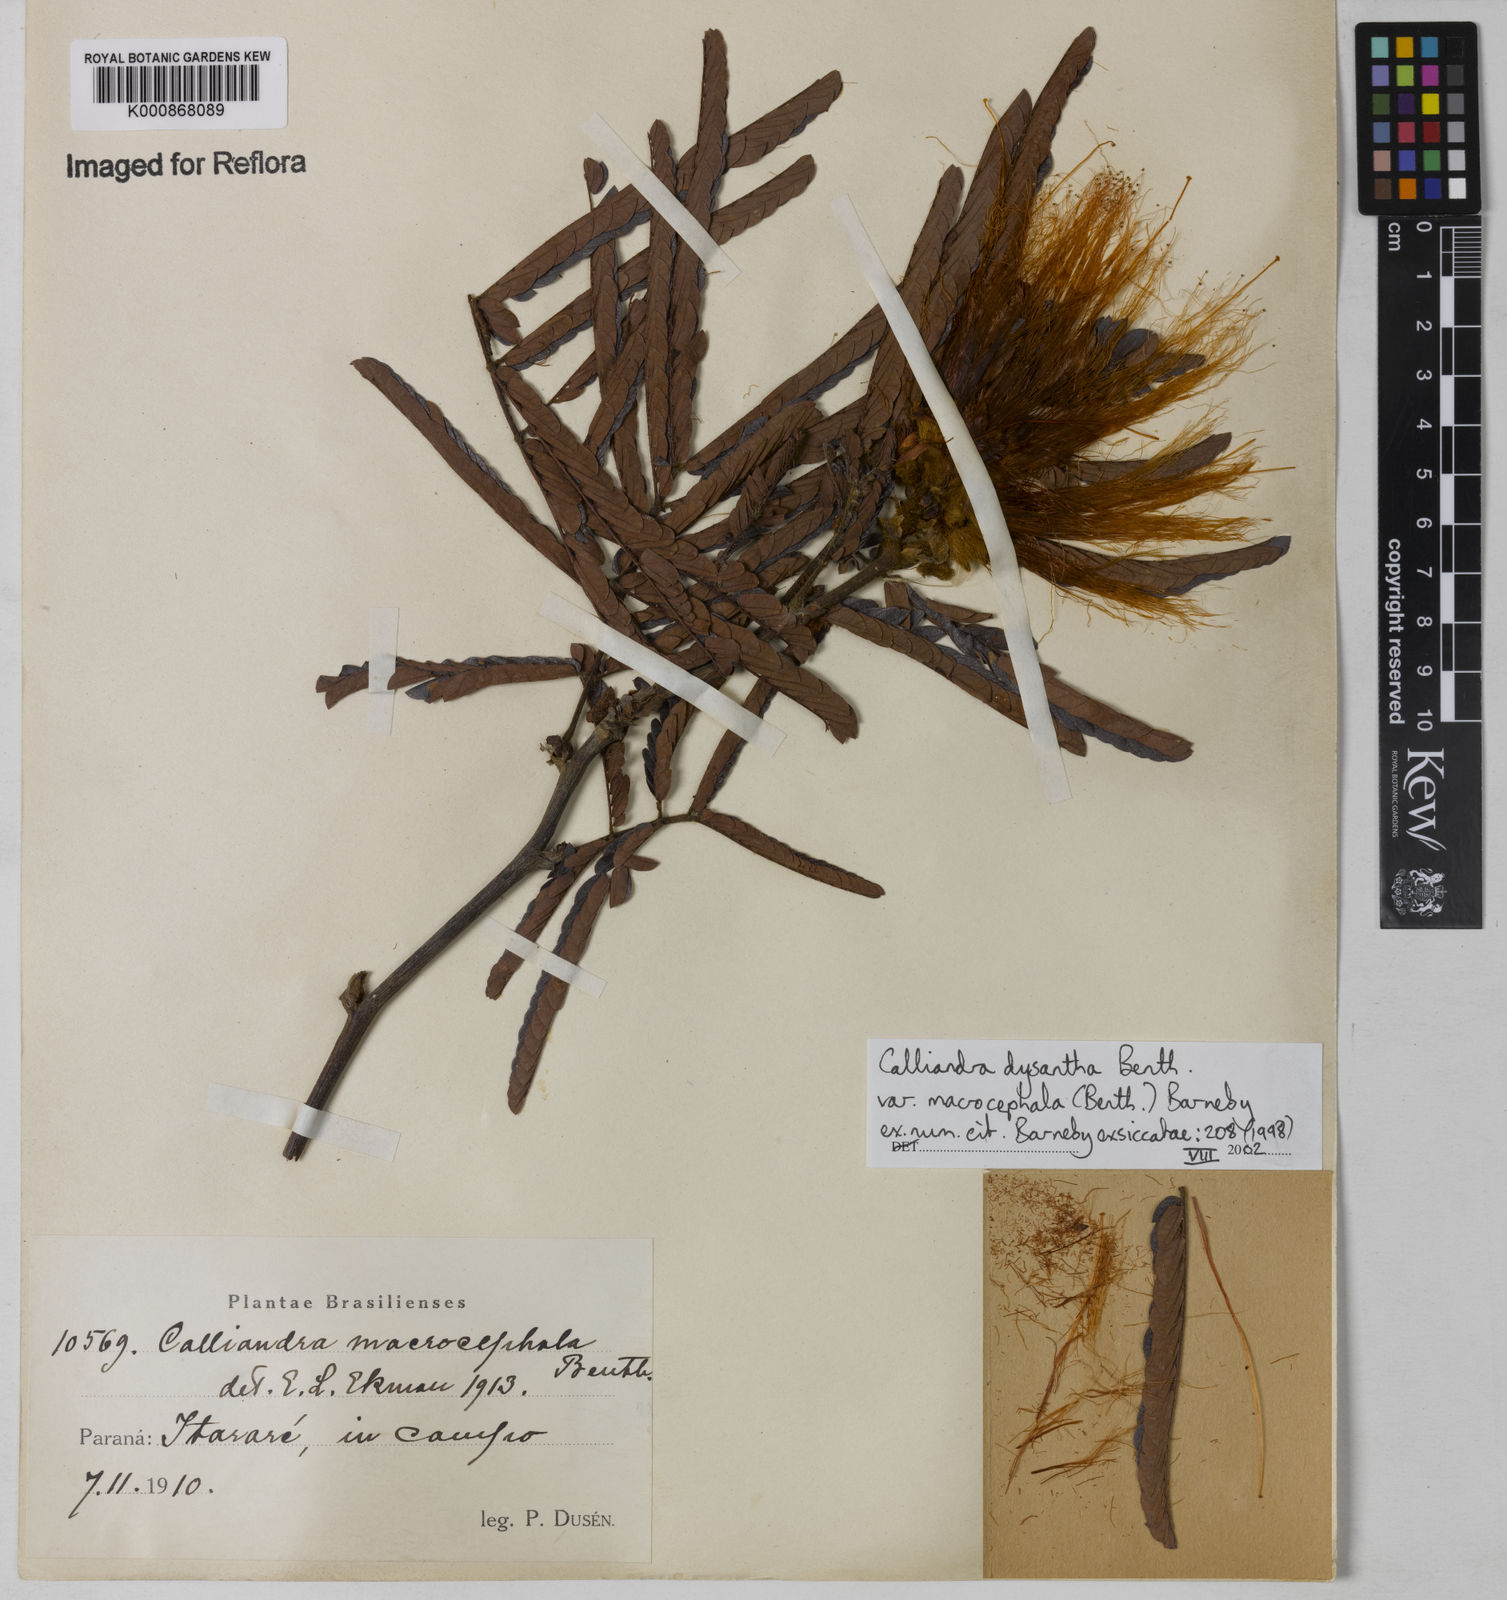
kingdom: Plantae
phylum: Tracheophyta
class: Magnoliopsida
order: Fabales
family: Fabaceae
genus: Calliandra
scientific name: Calliandra dysantha
